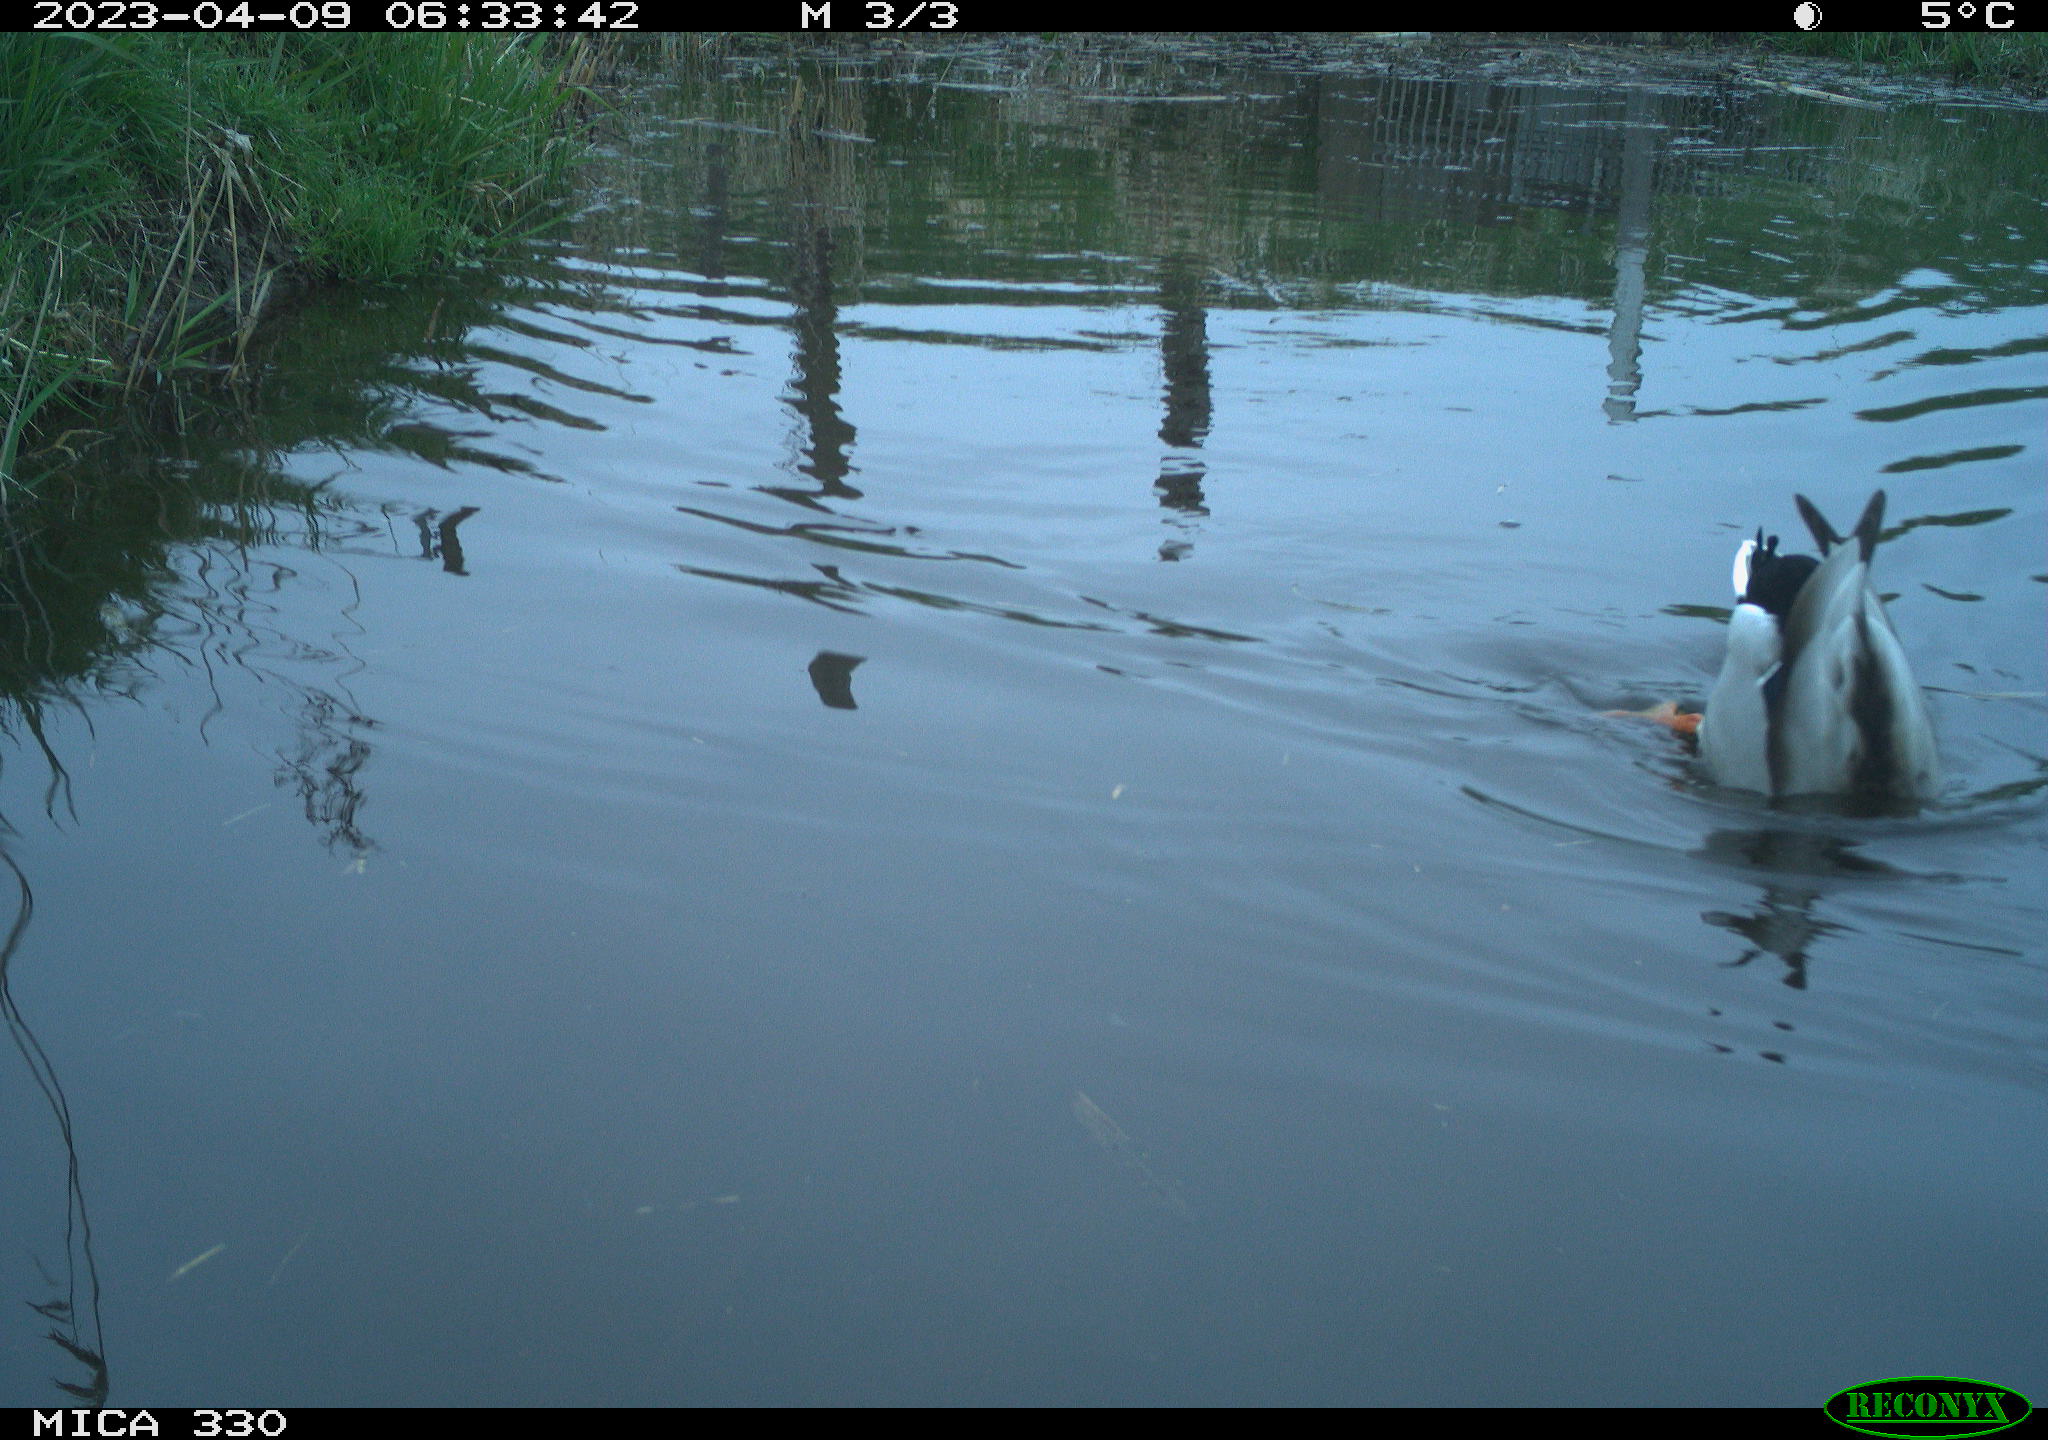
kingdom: Animalia
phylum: Chordata
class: Aves
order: Anseriformes
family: Anatidae
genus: Anas
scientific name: Anas
